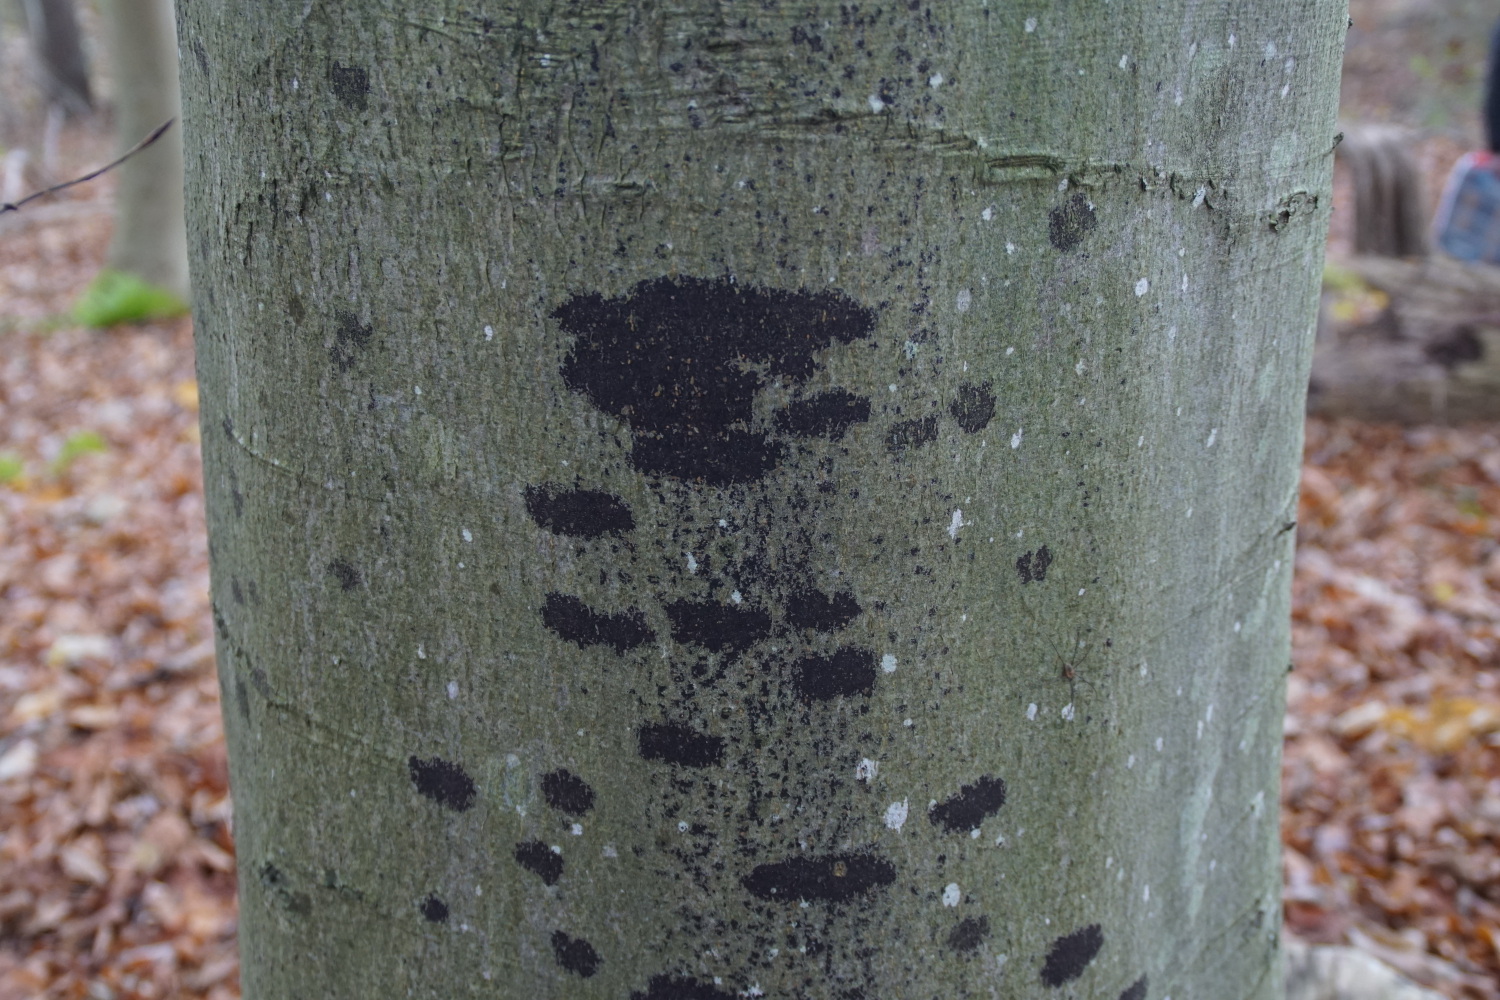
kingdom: Fungi
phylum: Ascomycota
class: Leotiomycetes
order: Rhytismatales
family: Ascodichaenaceae
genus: Ascodichaena
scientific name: Ascodichaena rugosa
